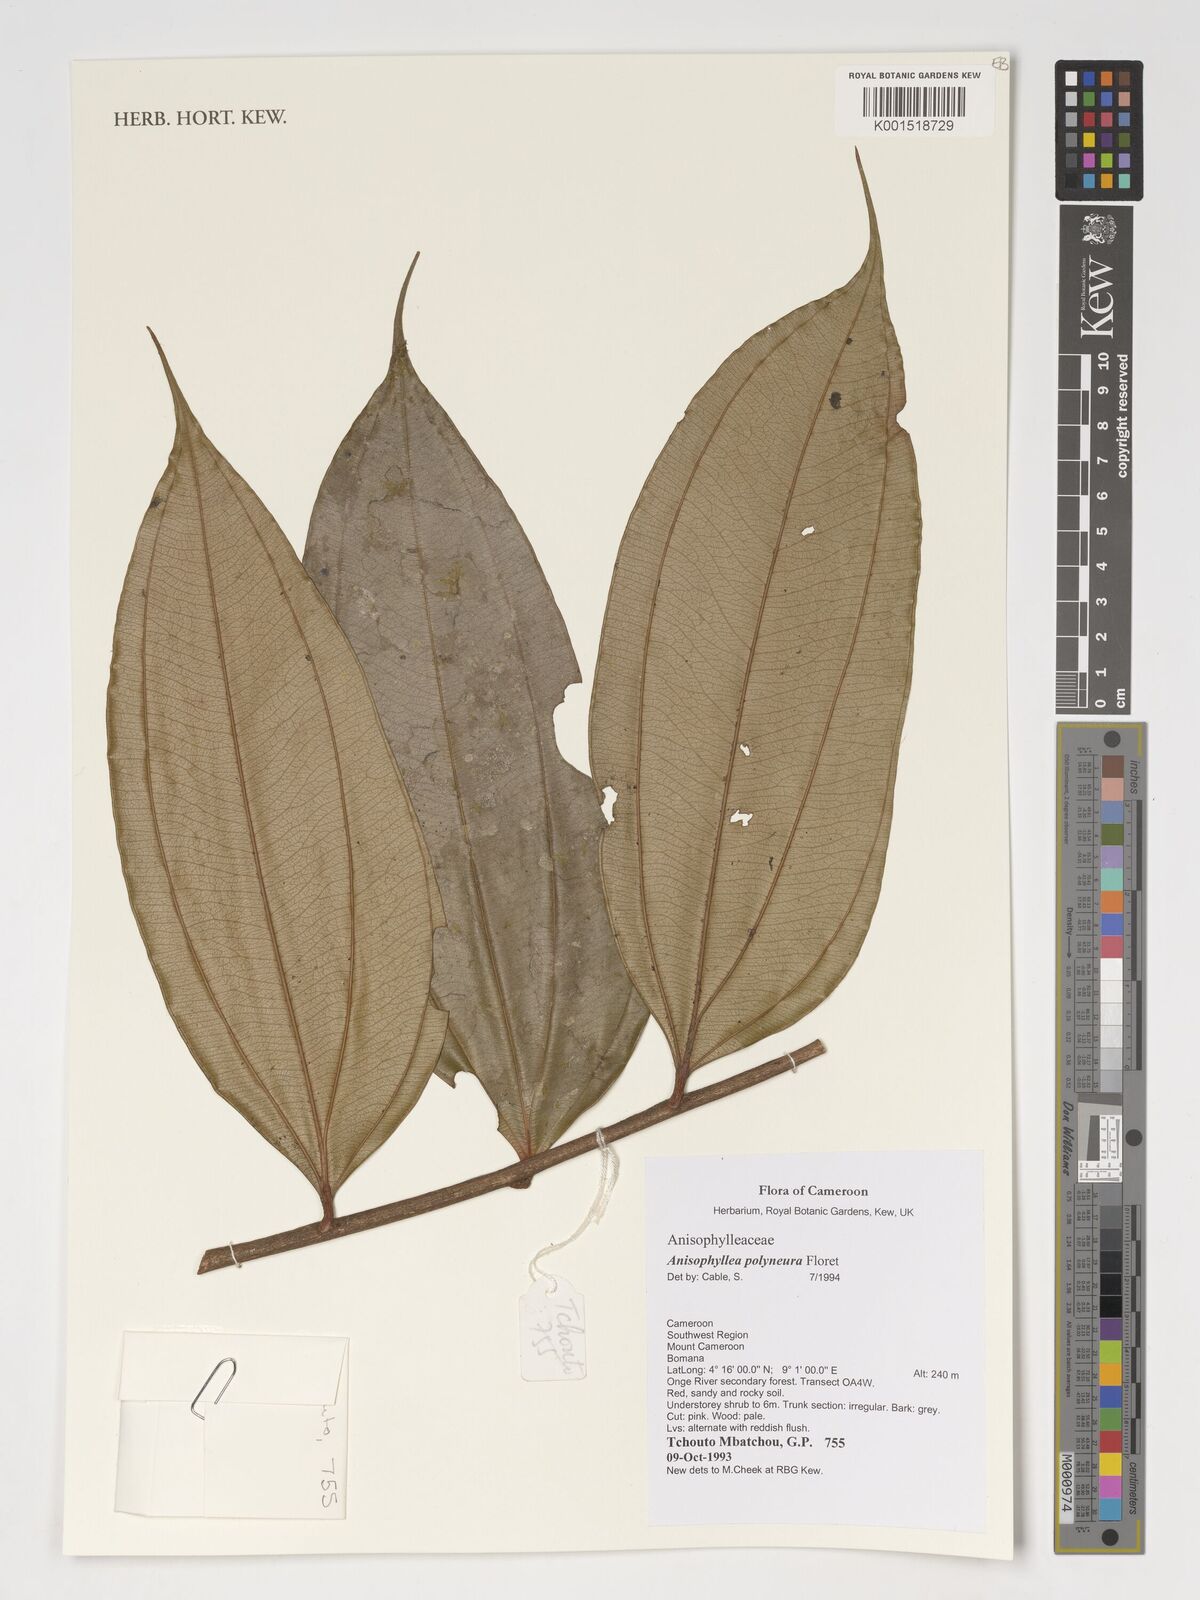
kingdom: Plantae
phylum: Tracheophyta
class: Magnoliopsida
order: Cucurbitales
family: Anisophylleaceae
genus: Anisophyllea
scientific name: Anisophyllea polyneura
